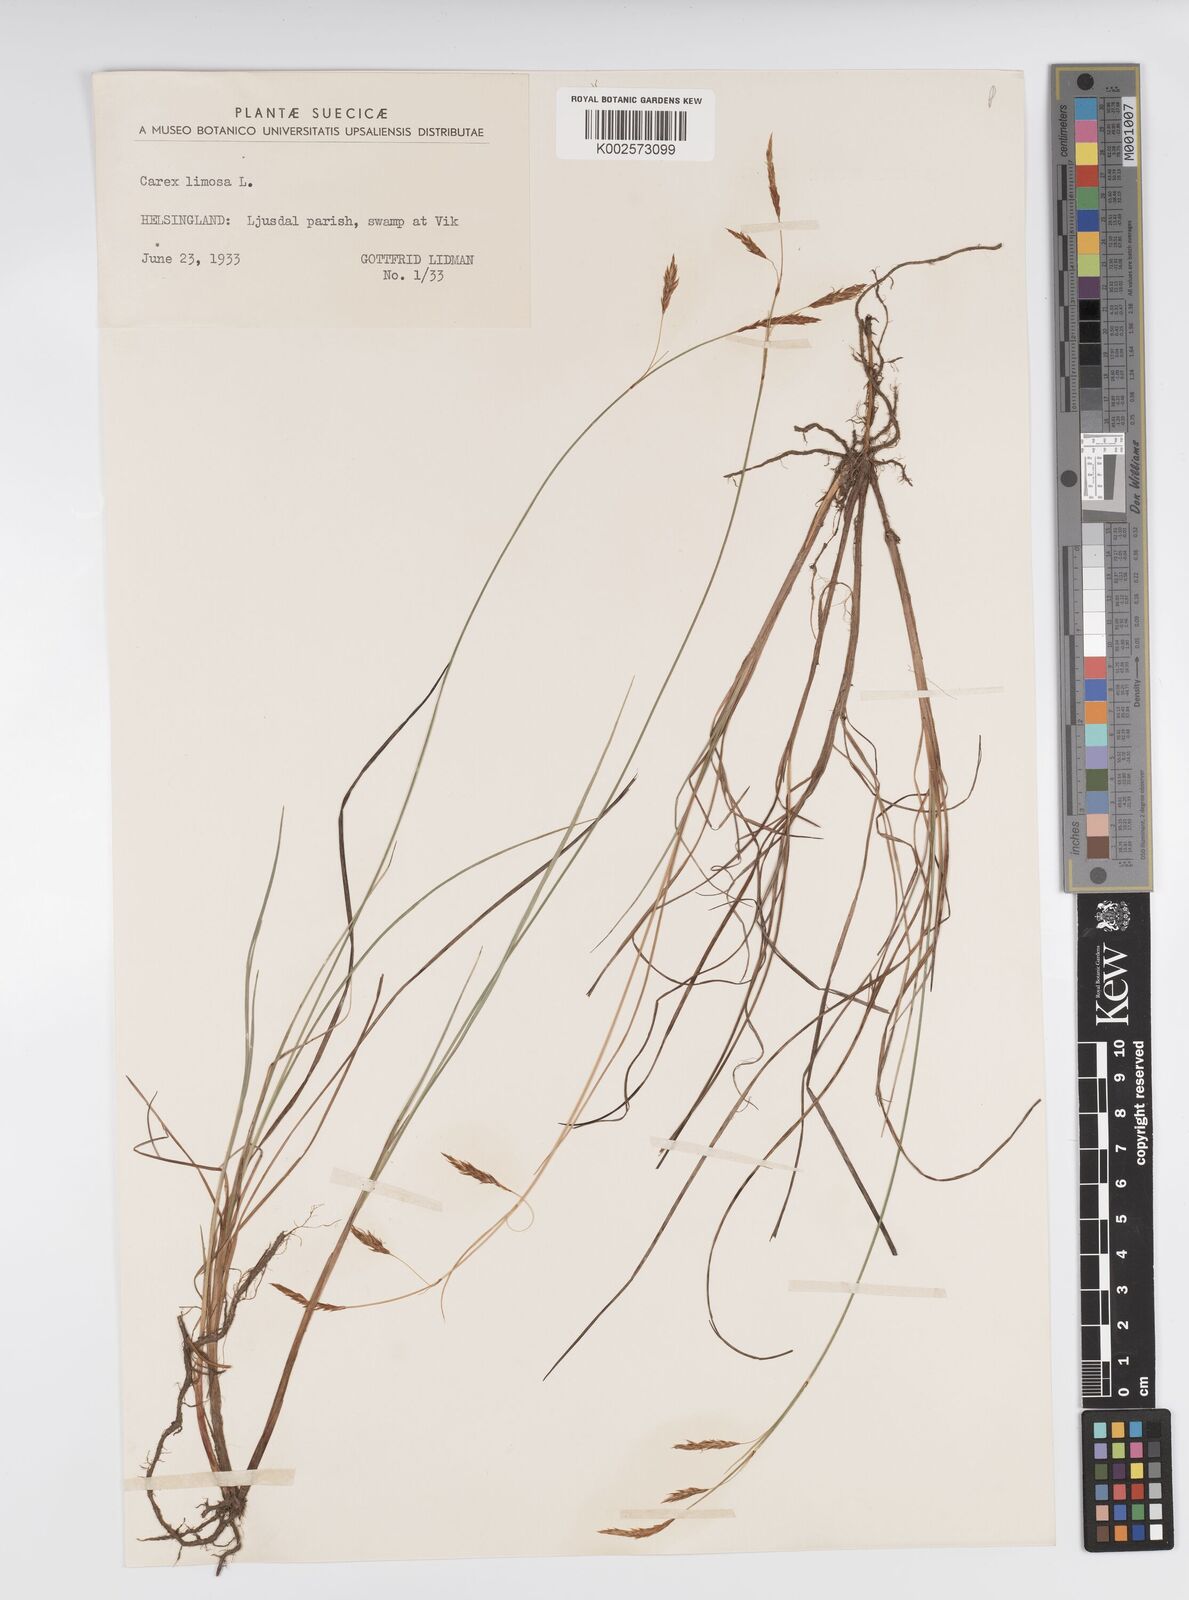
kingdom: Plantae
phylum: Tracheophyta
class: Liliopsida
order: Poales
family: Cyperaceae
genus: Carex
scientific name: Carex limosa
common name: Bog sedge
